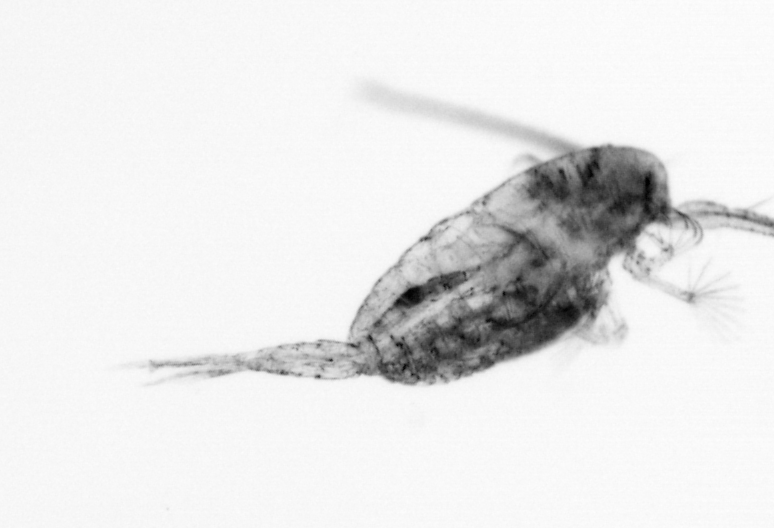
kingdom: Animalia
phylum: Arthropoda
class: Copepoda
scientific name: Copepoda
